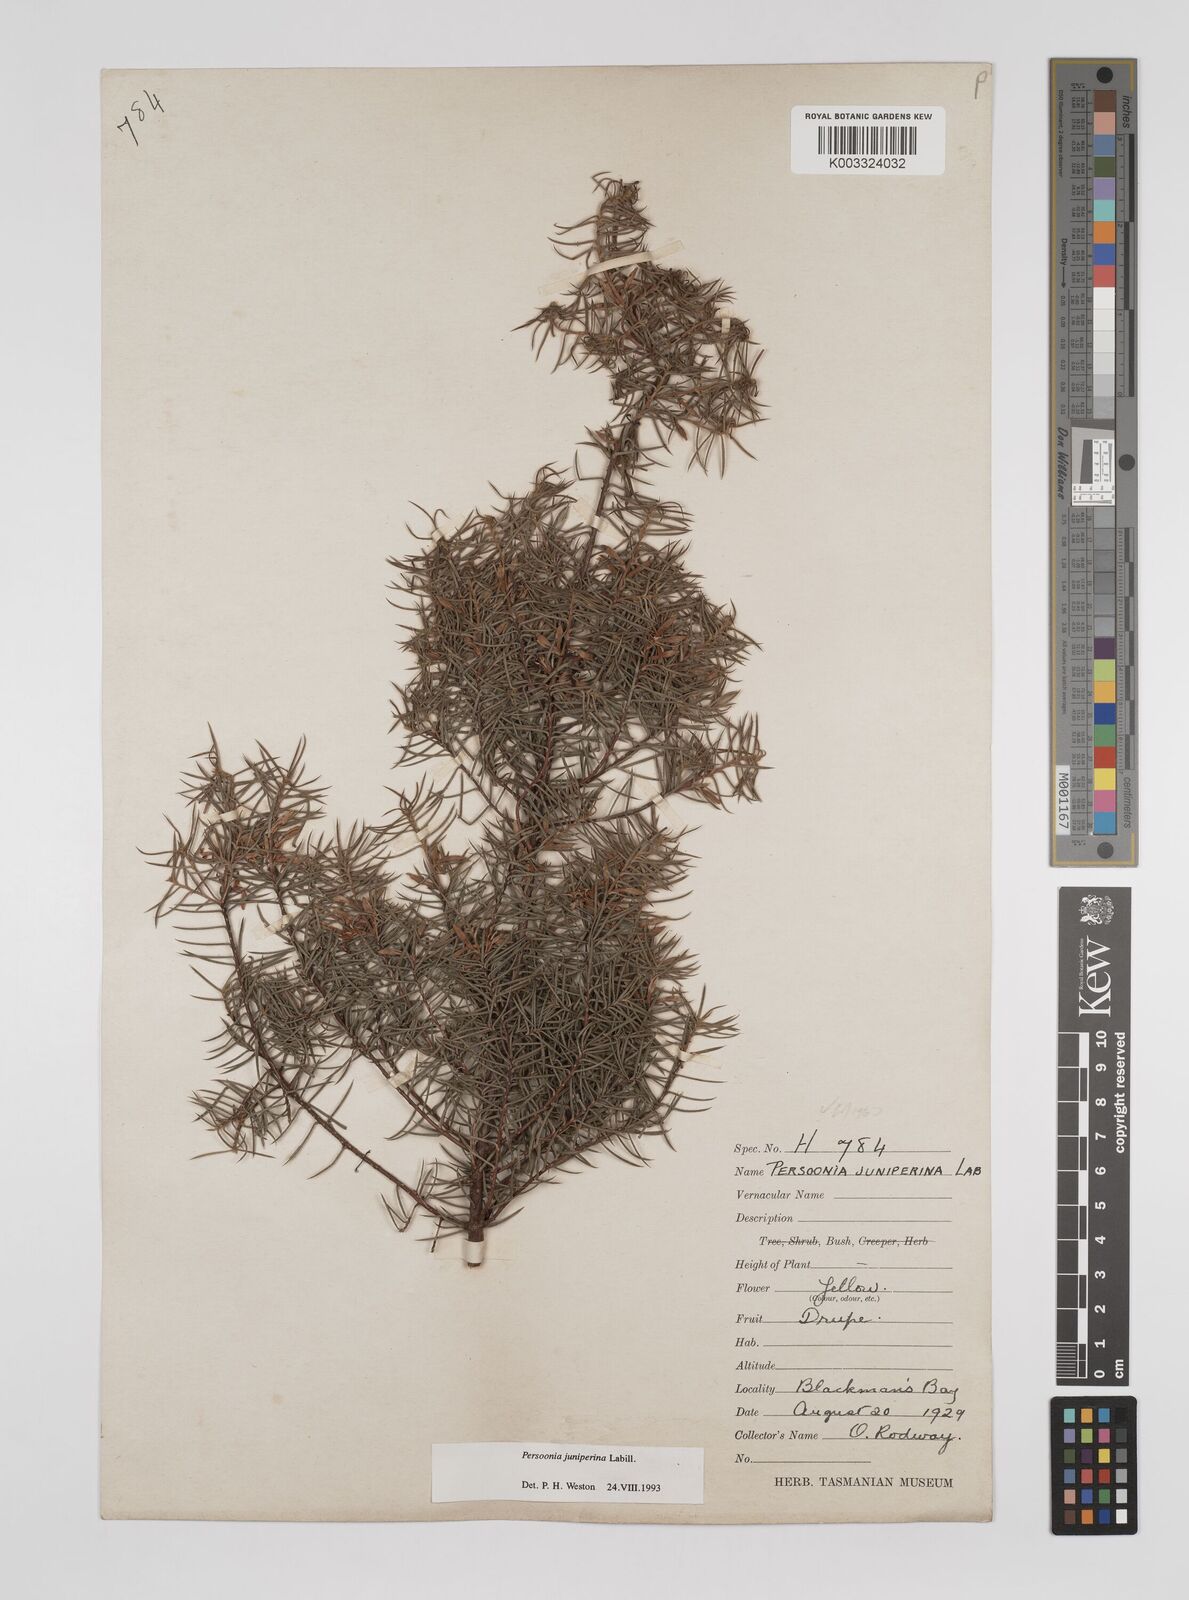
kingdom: Plantae
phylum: Tracheophyta
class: Magnoliopsida
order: Proteales
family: Proteaceae
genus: Persoonia
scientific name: Persoonia juniperina
